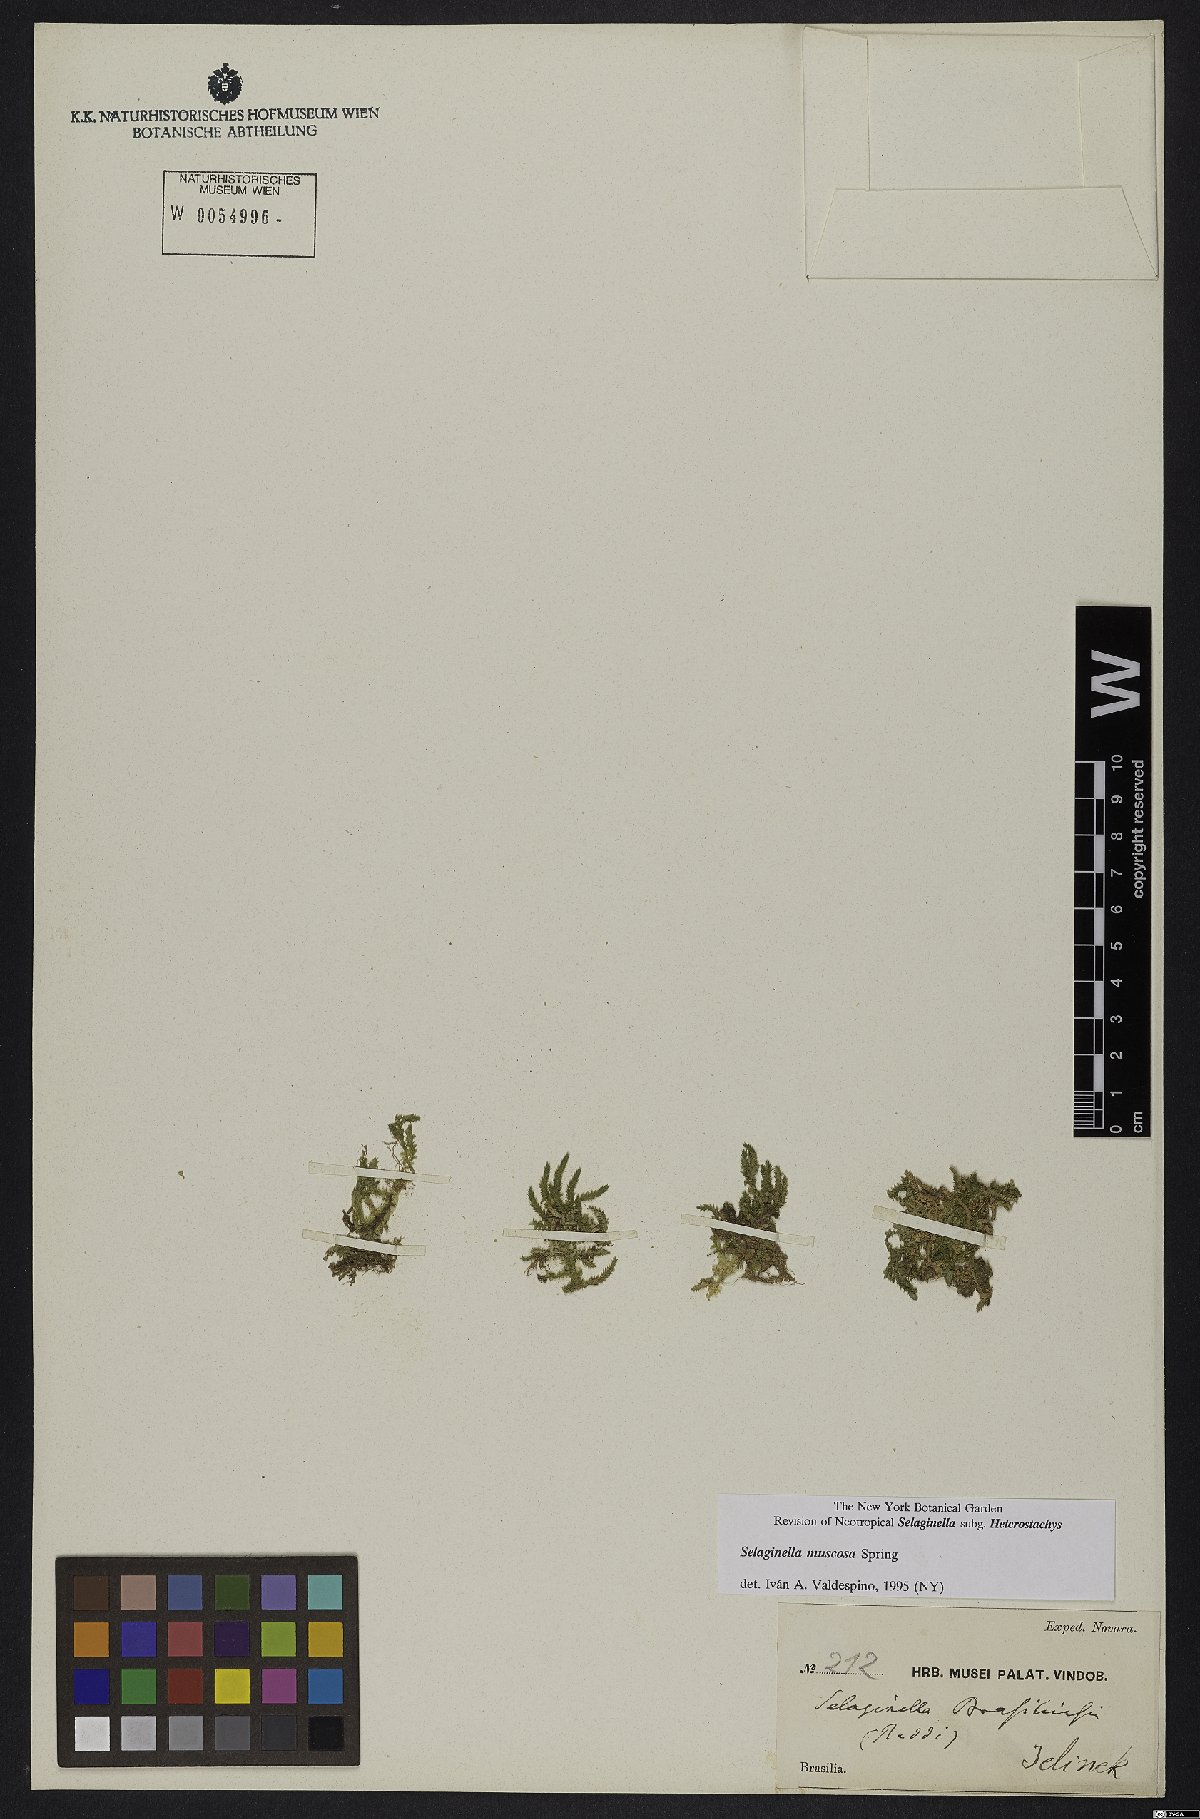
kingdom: Plantae
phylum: Tracheophyta
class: Lycopodiopsida
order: Selaginellales
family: Selaginellaceae
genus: Selaginella
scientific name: Selaginella muscosa
